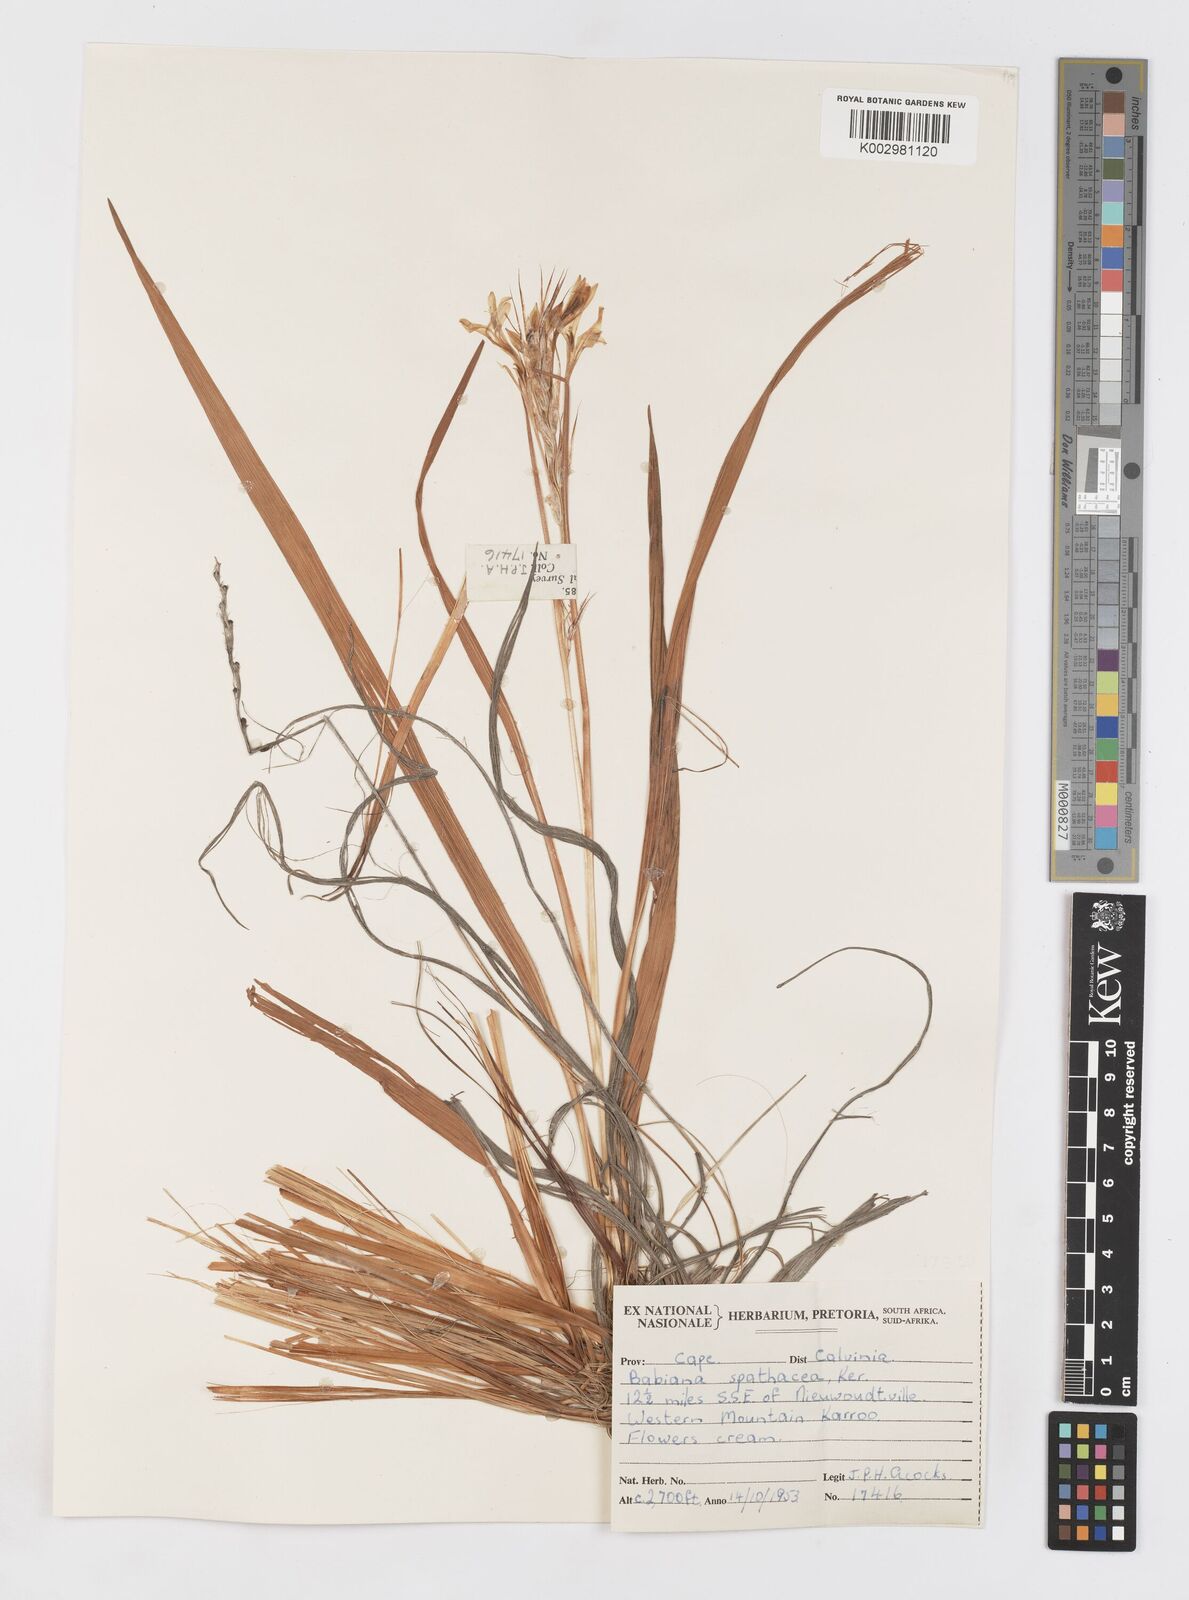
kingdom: Plantae
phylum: Tracheophyta
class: Liliopsida
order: Asparagales
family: Iridaceae
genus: Babiana
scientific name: Babiana spathacea
